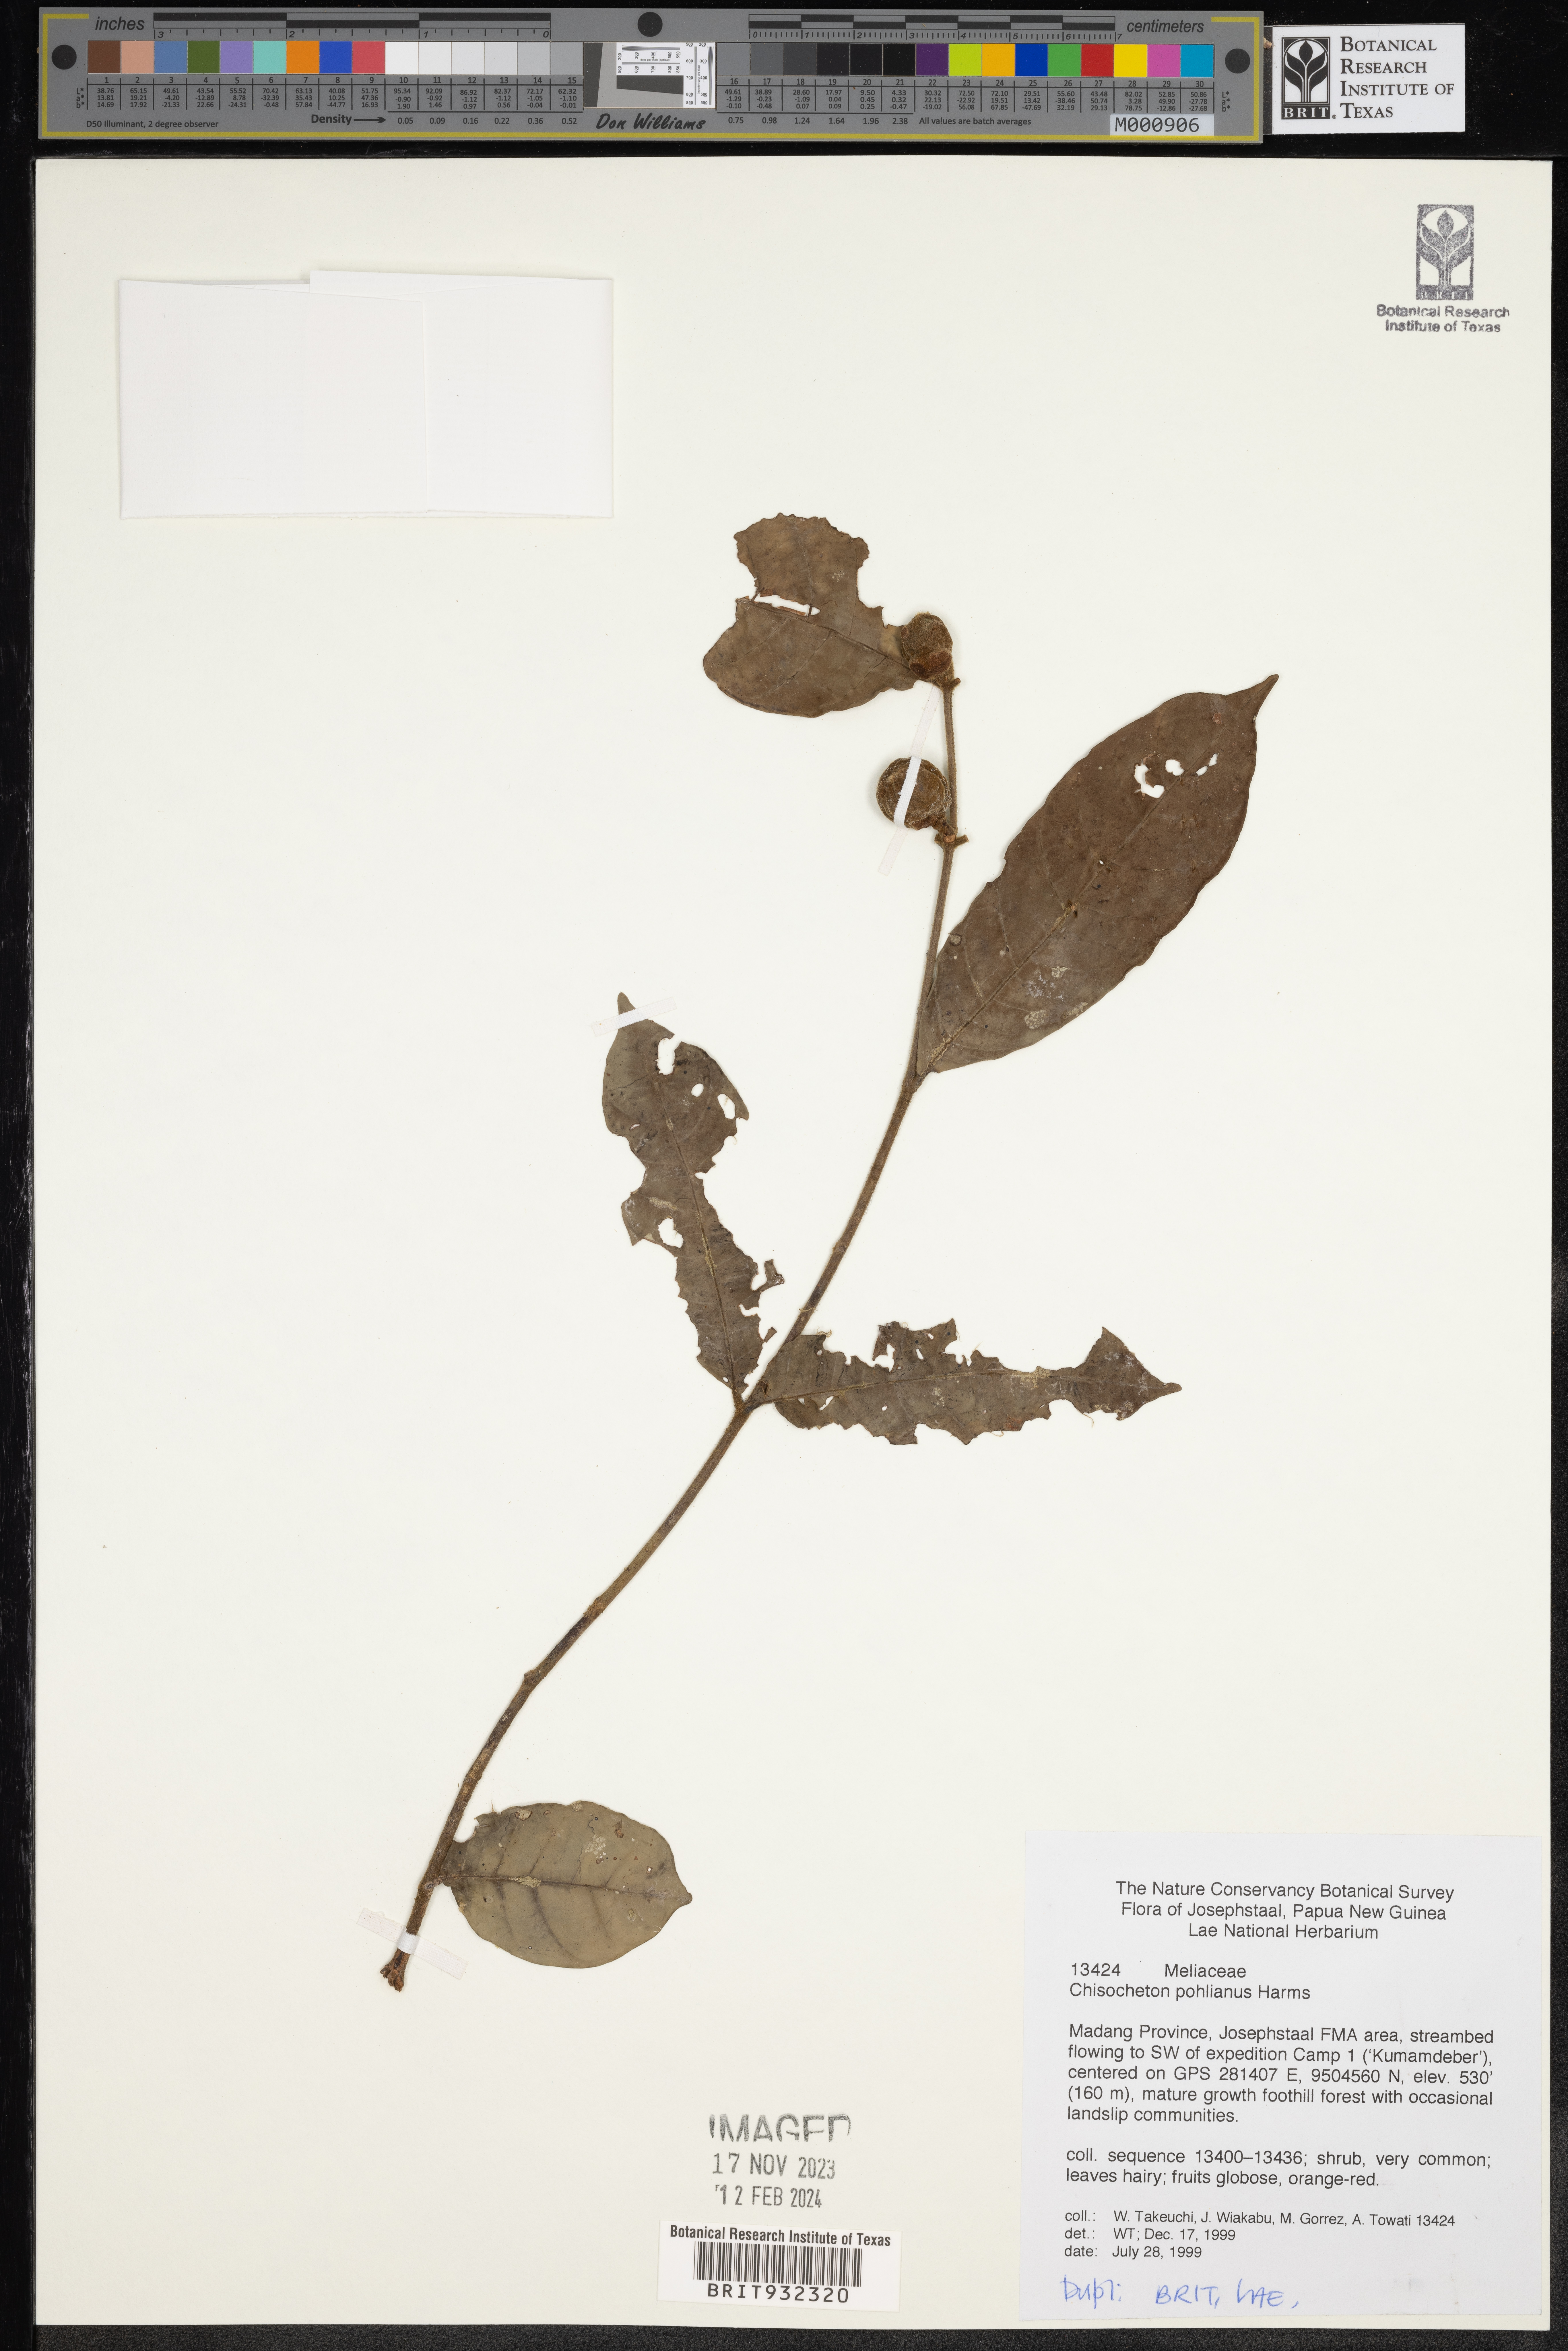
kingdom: Plantae
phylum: Tracheophyta
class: Magnoliopsida
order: Sapindales
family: Meliaceae
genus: Chisocheton
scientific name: Chisocheton
